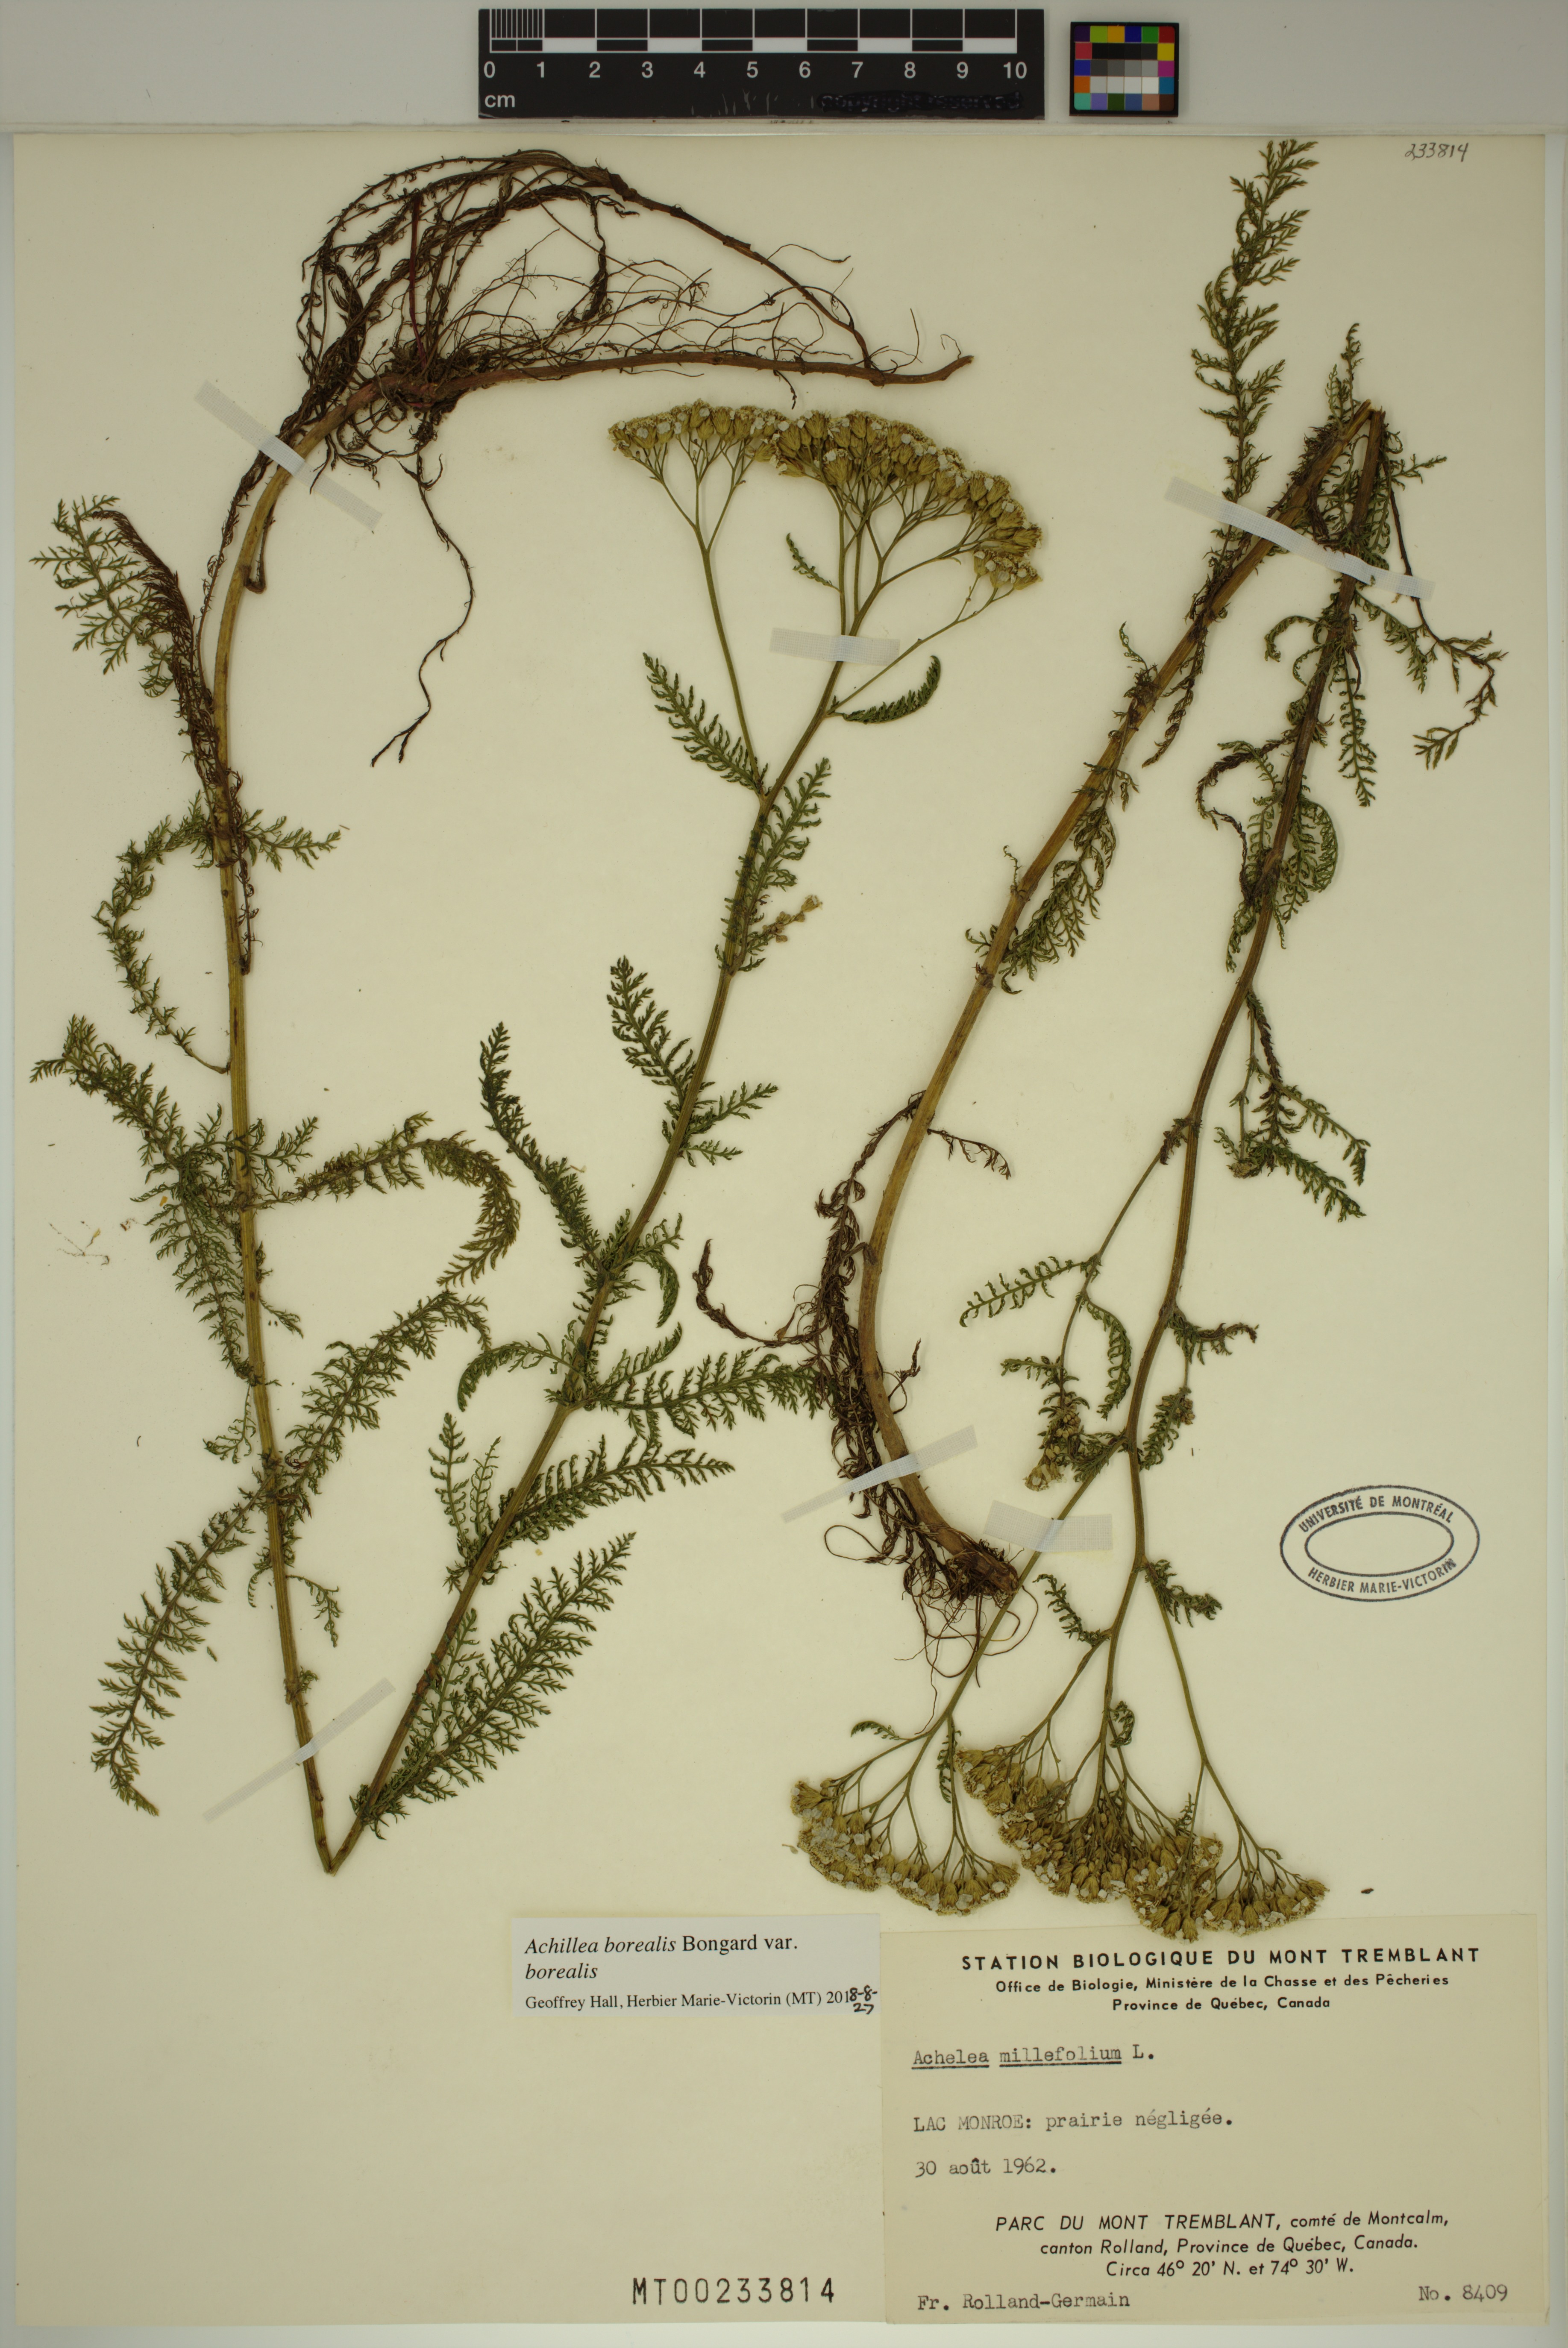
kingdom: Plantae
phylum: Tracheophyta
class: Magnoliopsida
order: Asterales
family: Asteraceae
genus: Achillea
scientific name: Achillea millefolium
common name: Yarrow
